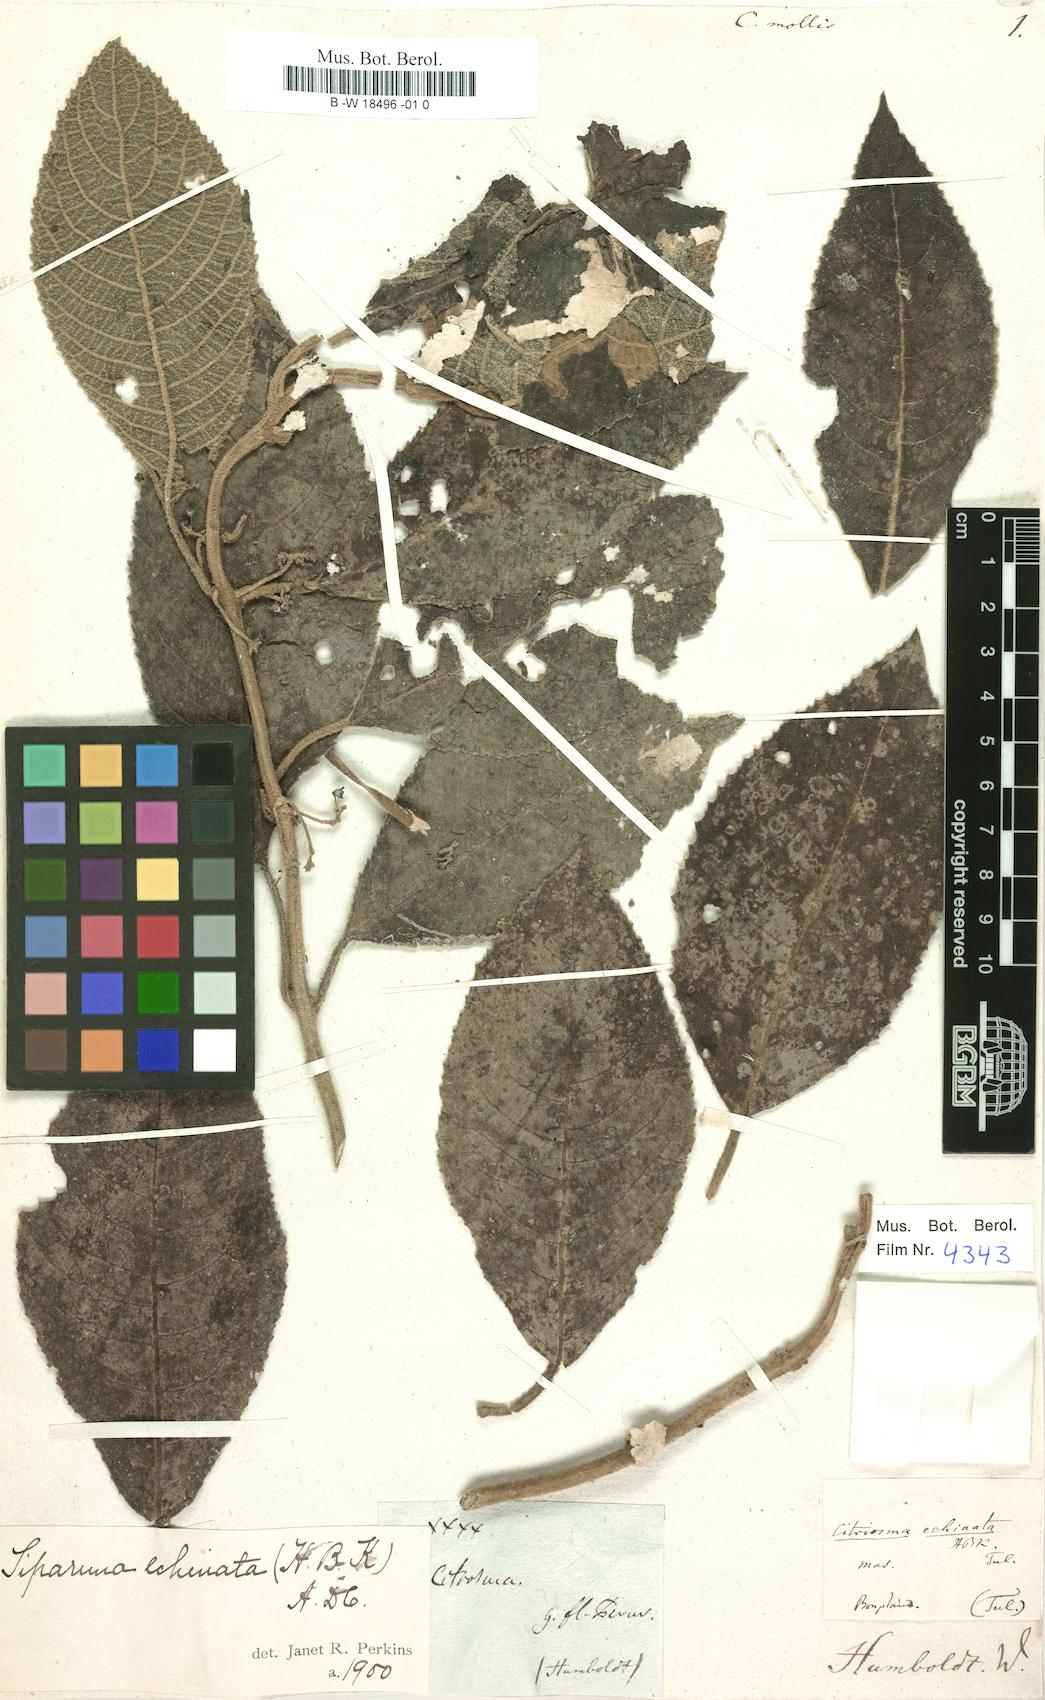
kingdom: Plantae
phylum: Tracheophyta
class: Magnoliopsida
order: Laurales
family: Siparunaceae
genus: Siparuna
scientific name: Siparuna sessiliflora
